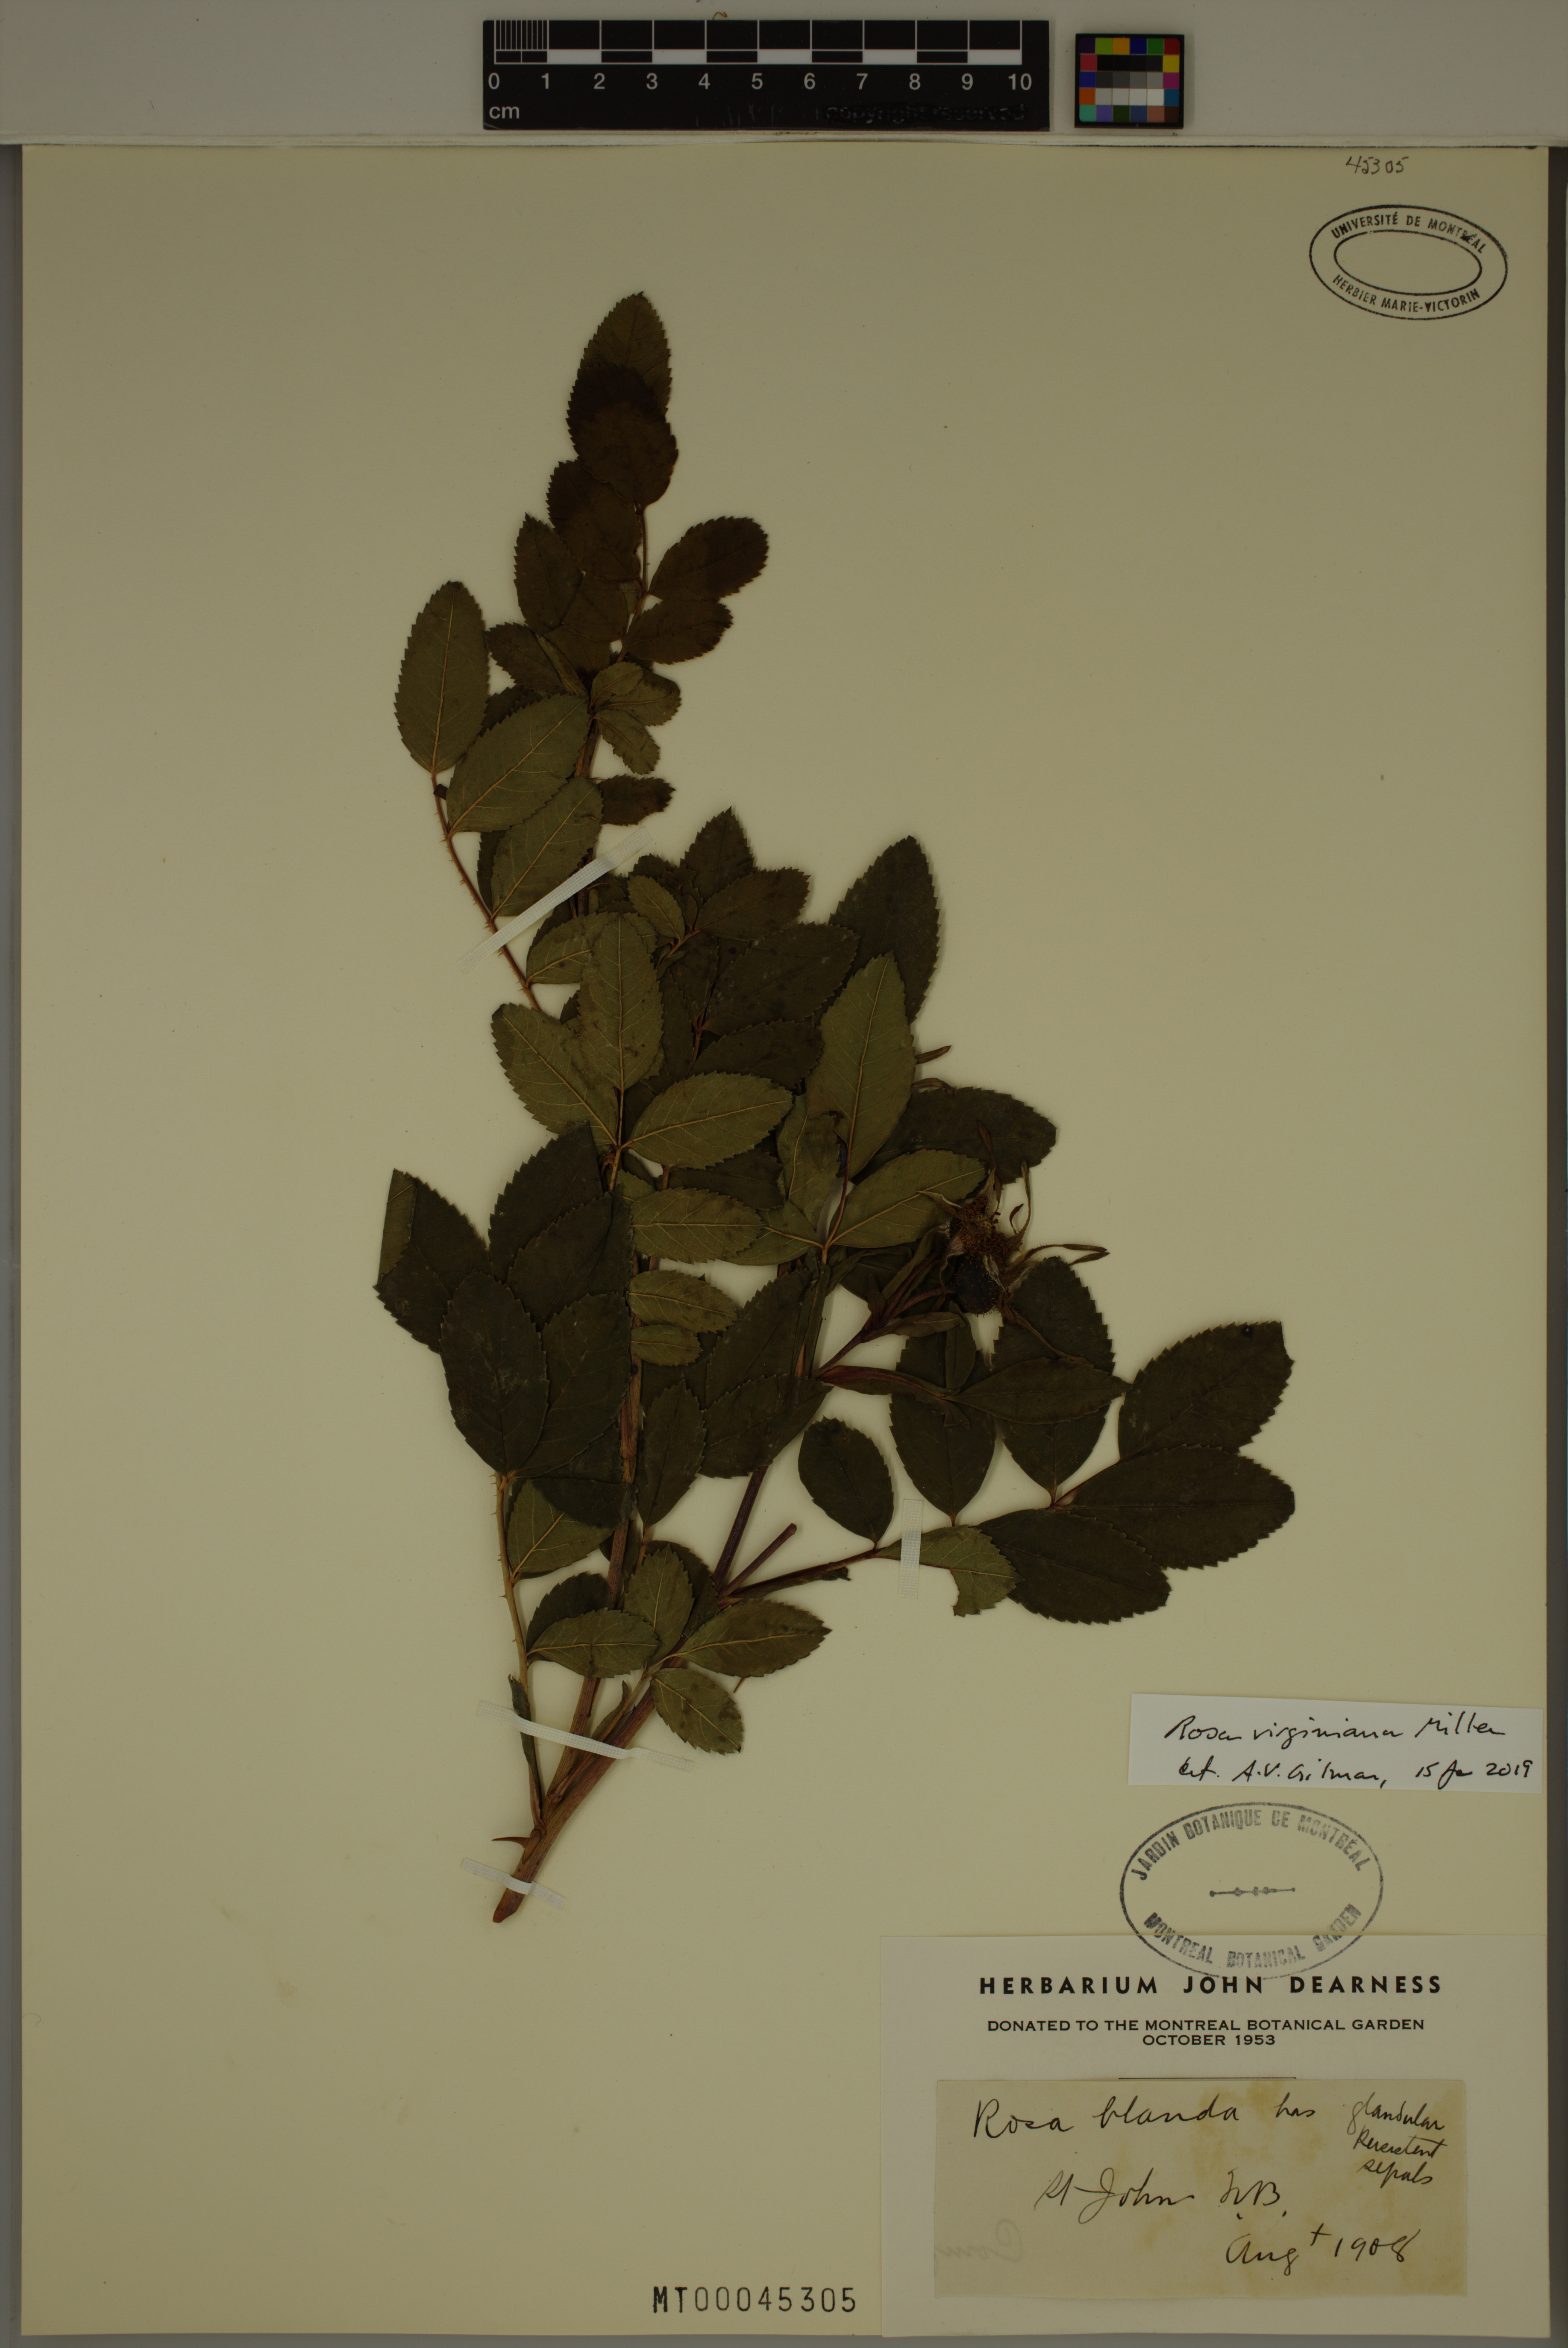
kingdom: Plantae
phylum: Tracheophyta
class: Magnoliopsida
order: Rosales
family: Rosaceae
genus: Rosa
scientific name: Rosa carolina
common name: Pasture rose
